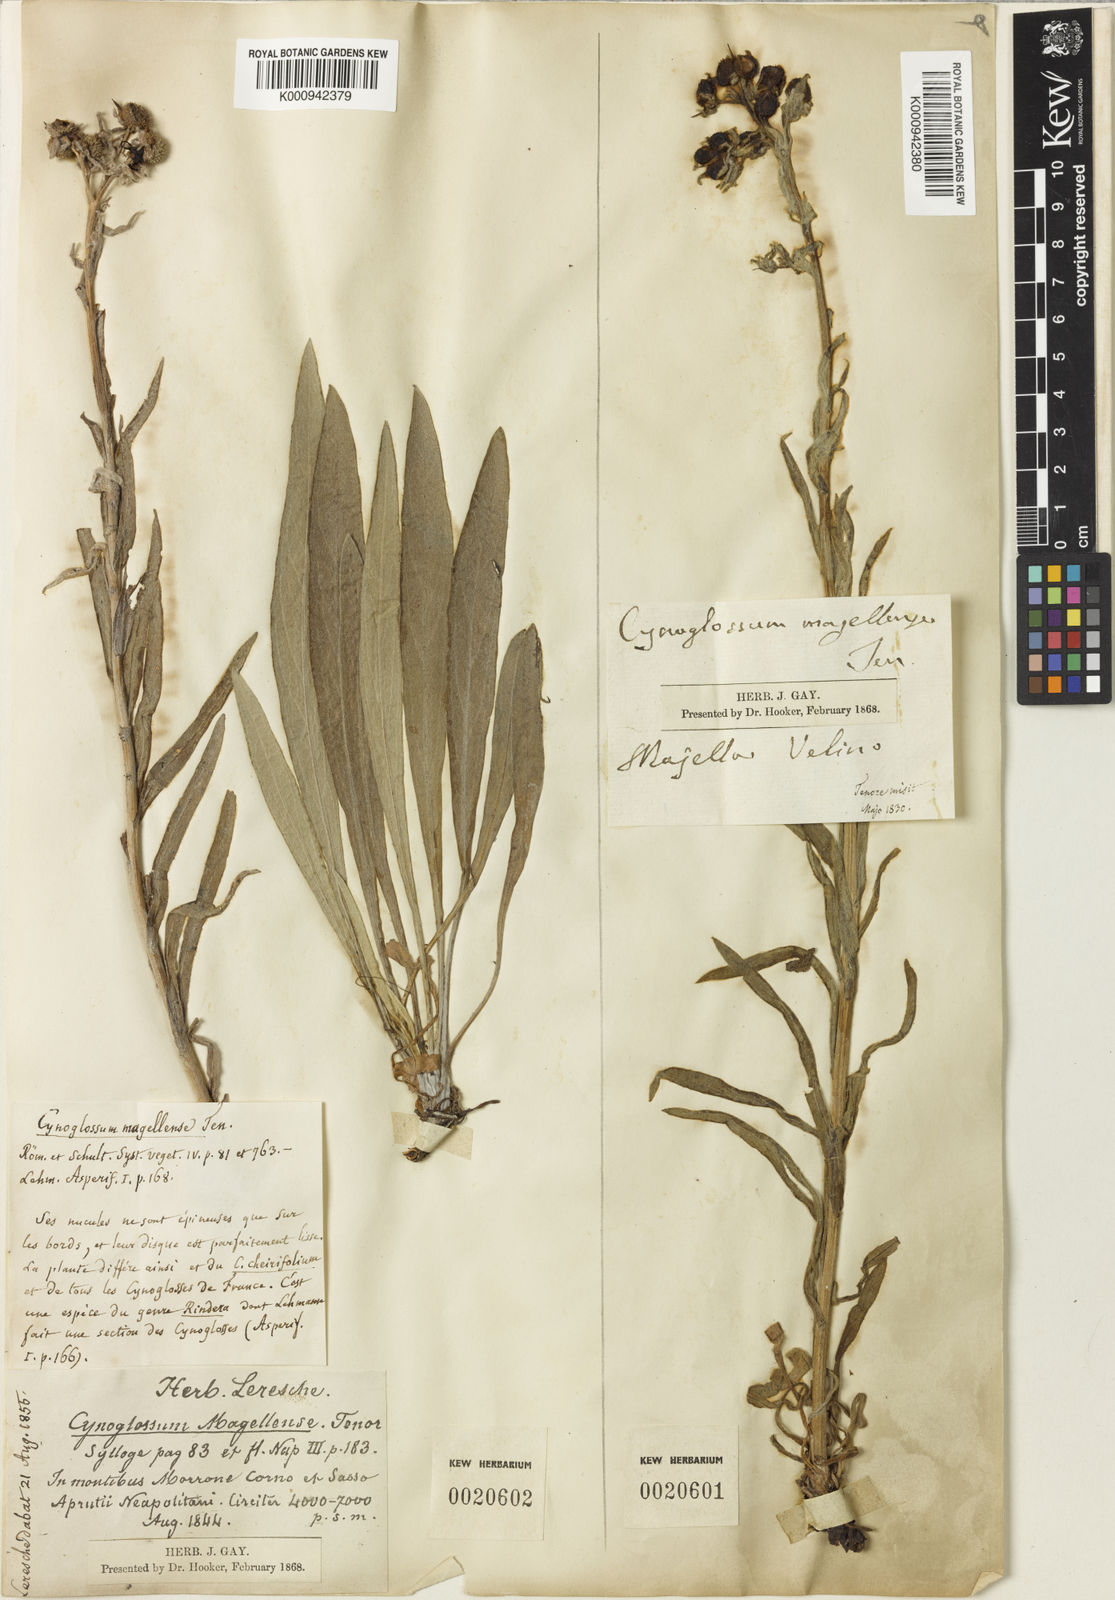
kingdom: Plantae
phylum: Tracheophyta
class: Magnoliopsida
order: Boraginales
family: Boraginaceae
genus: Rindera
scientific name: Rindera magellensis
